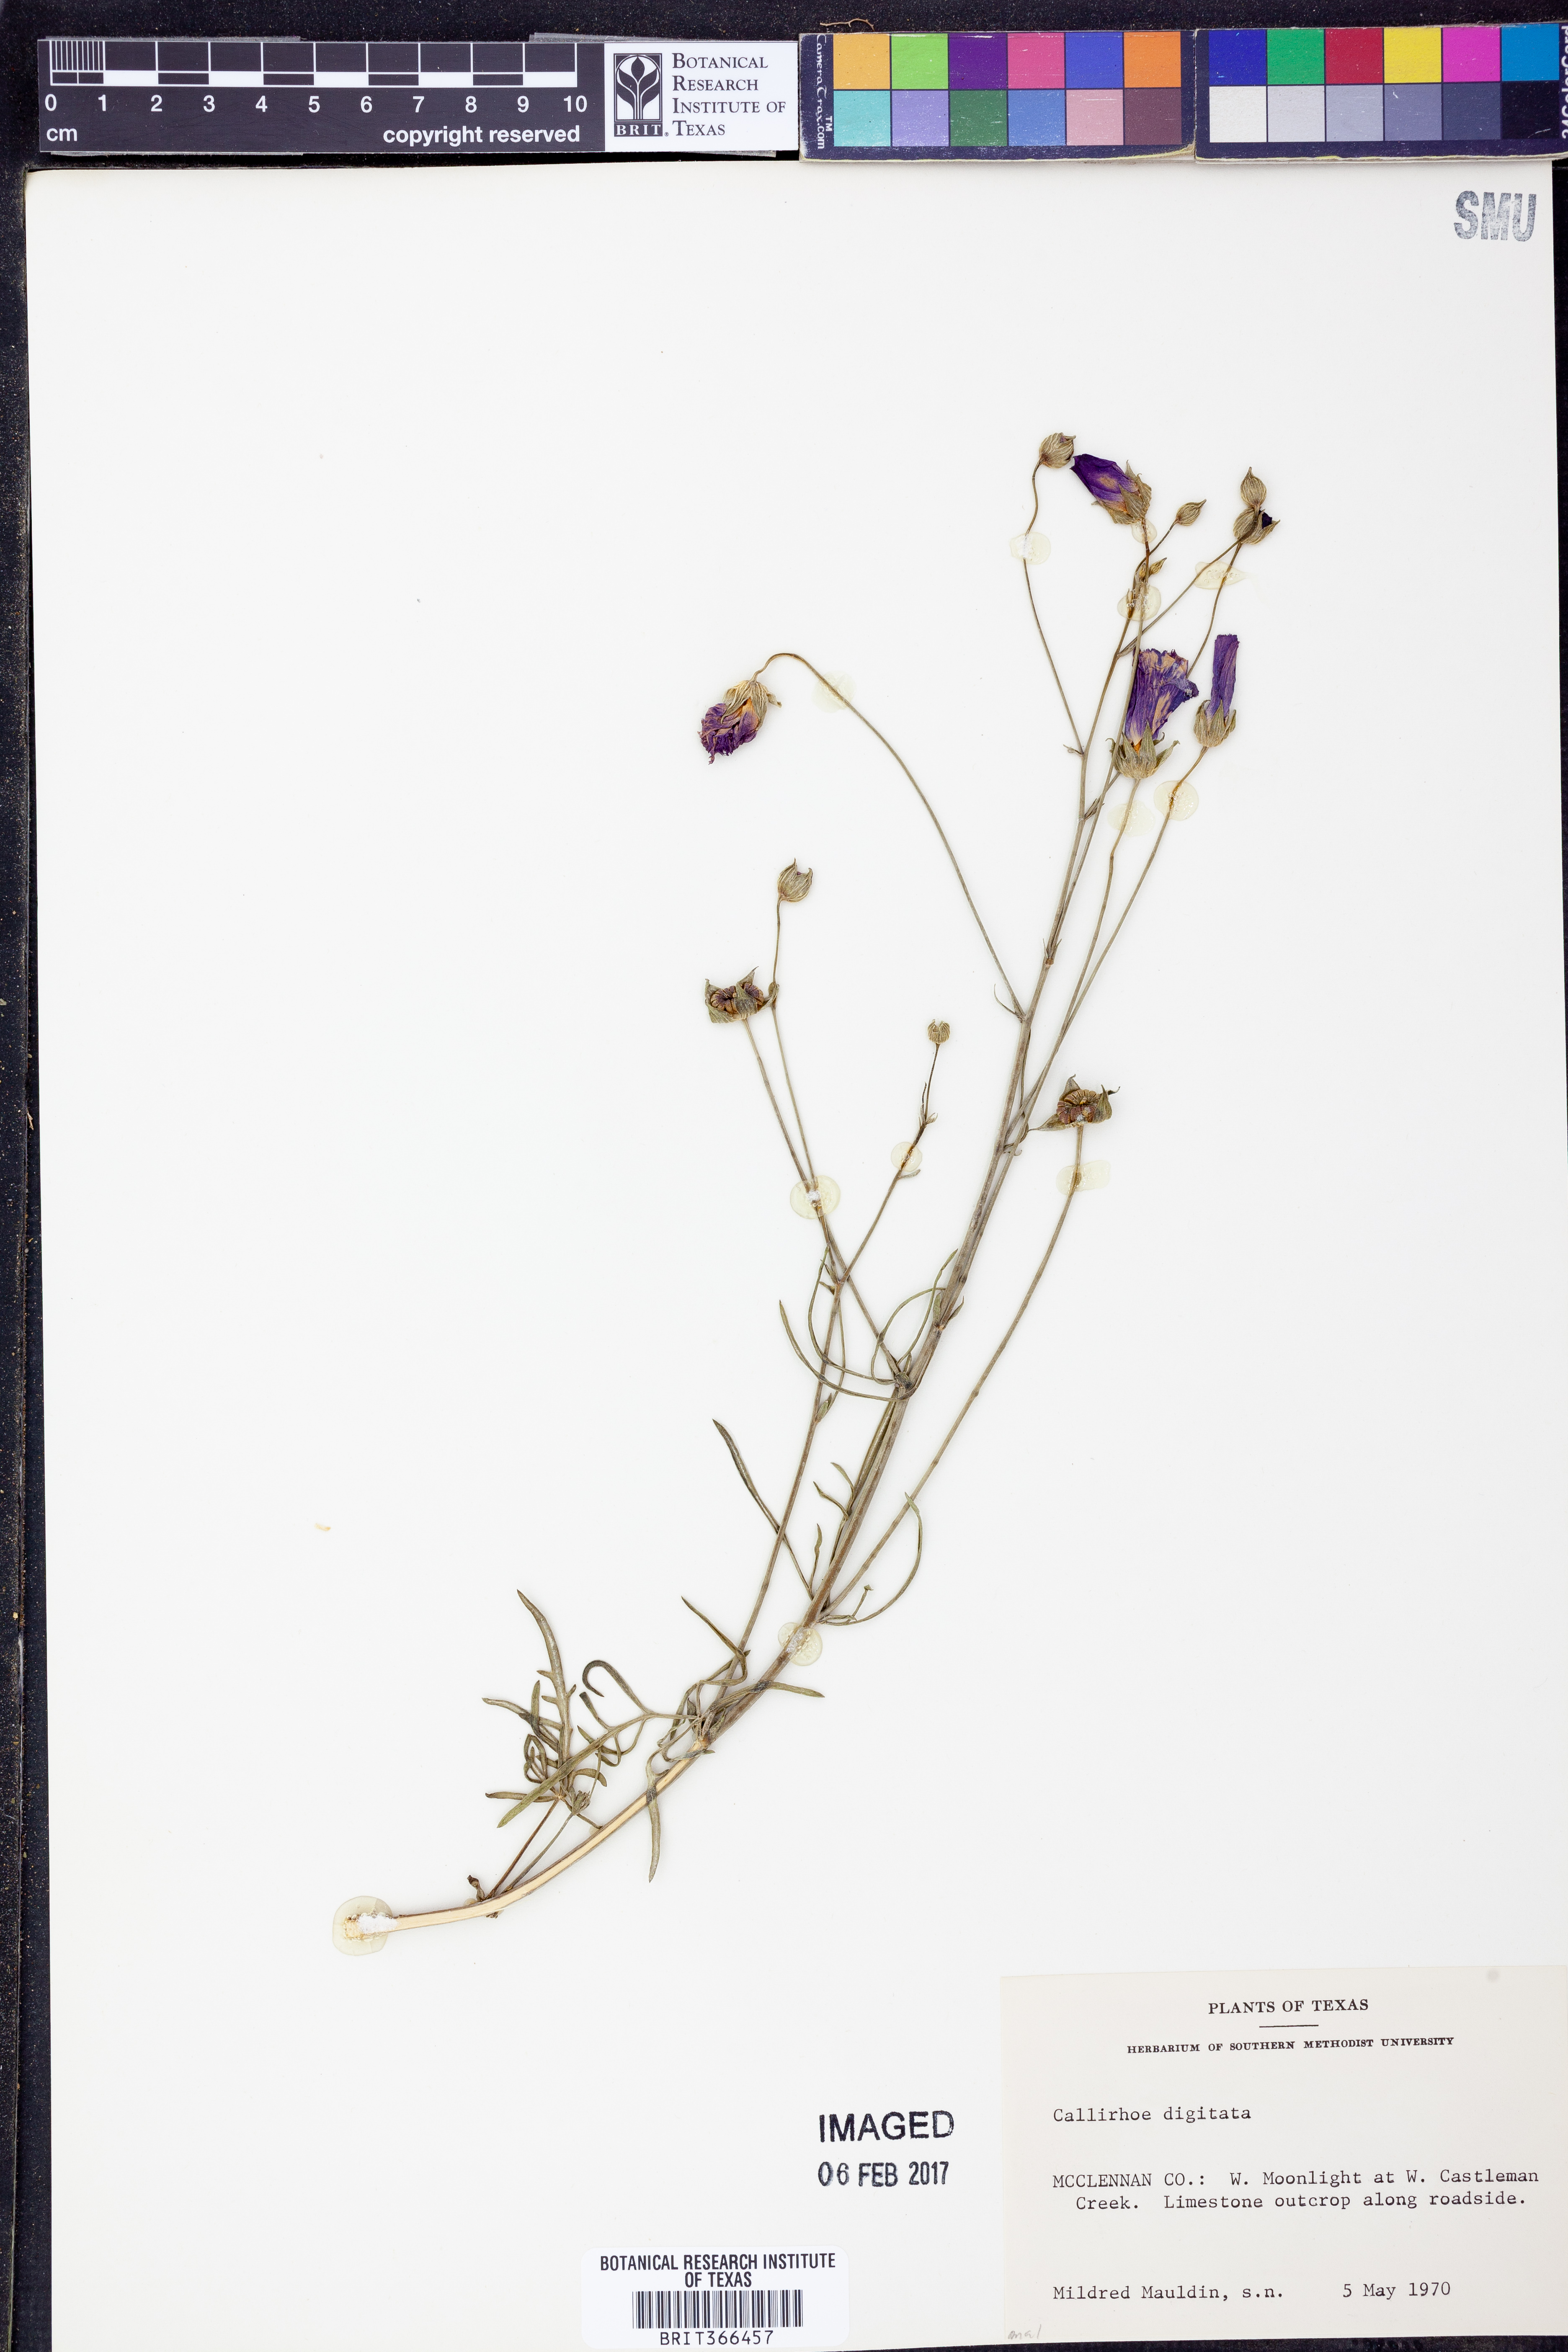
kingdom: Plantae
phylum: Tracheophyta
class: Magnoliopsida
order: Malvales
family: Malvaceae
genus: Callirhoe
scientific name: Callirhoe digitata
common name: Finger poppy-mallow
